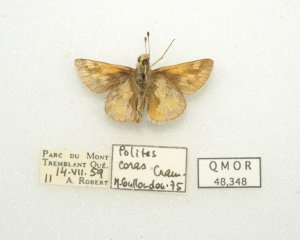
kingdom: Animalia
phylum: Arthropoda
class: Insecta
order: Lepidoptera
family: Hesperiidae
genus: Polites
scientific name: Polites coras
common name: Peck's Skipper
